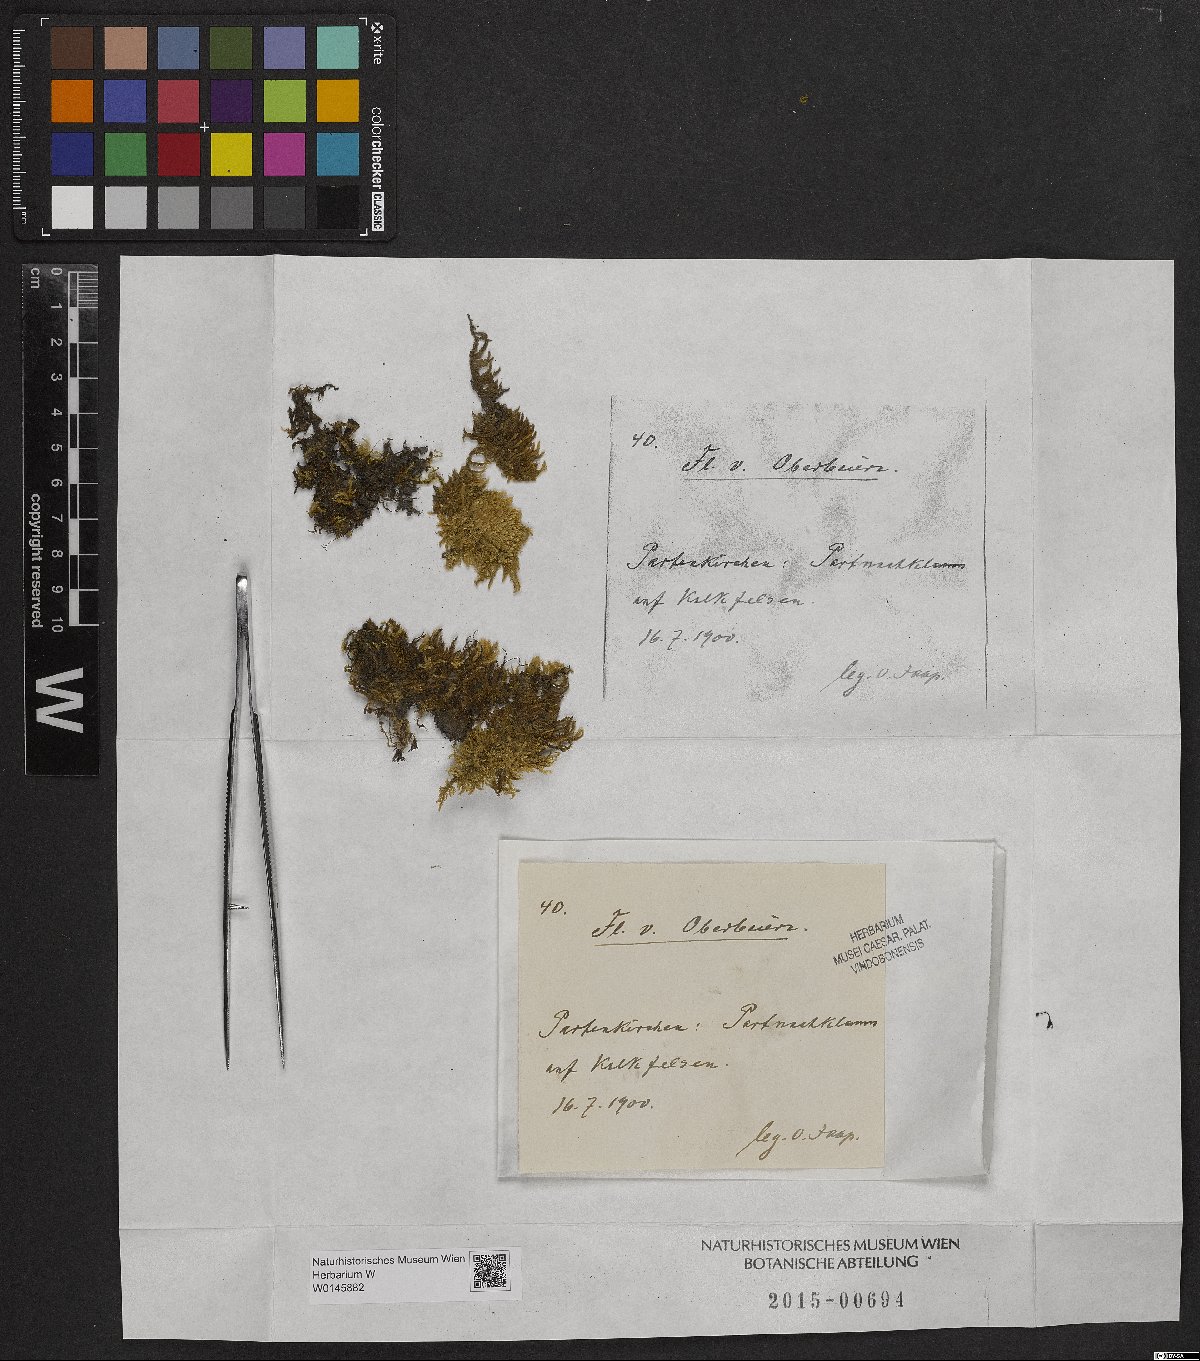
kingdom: Plantae
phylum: Bryophyta
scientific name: Bryophyta
